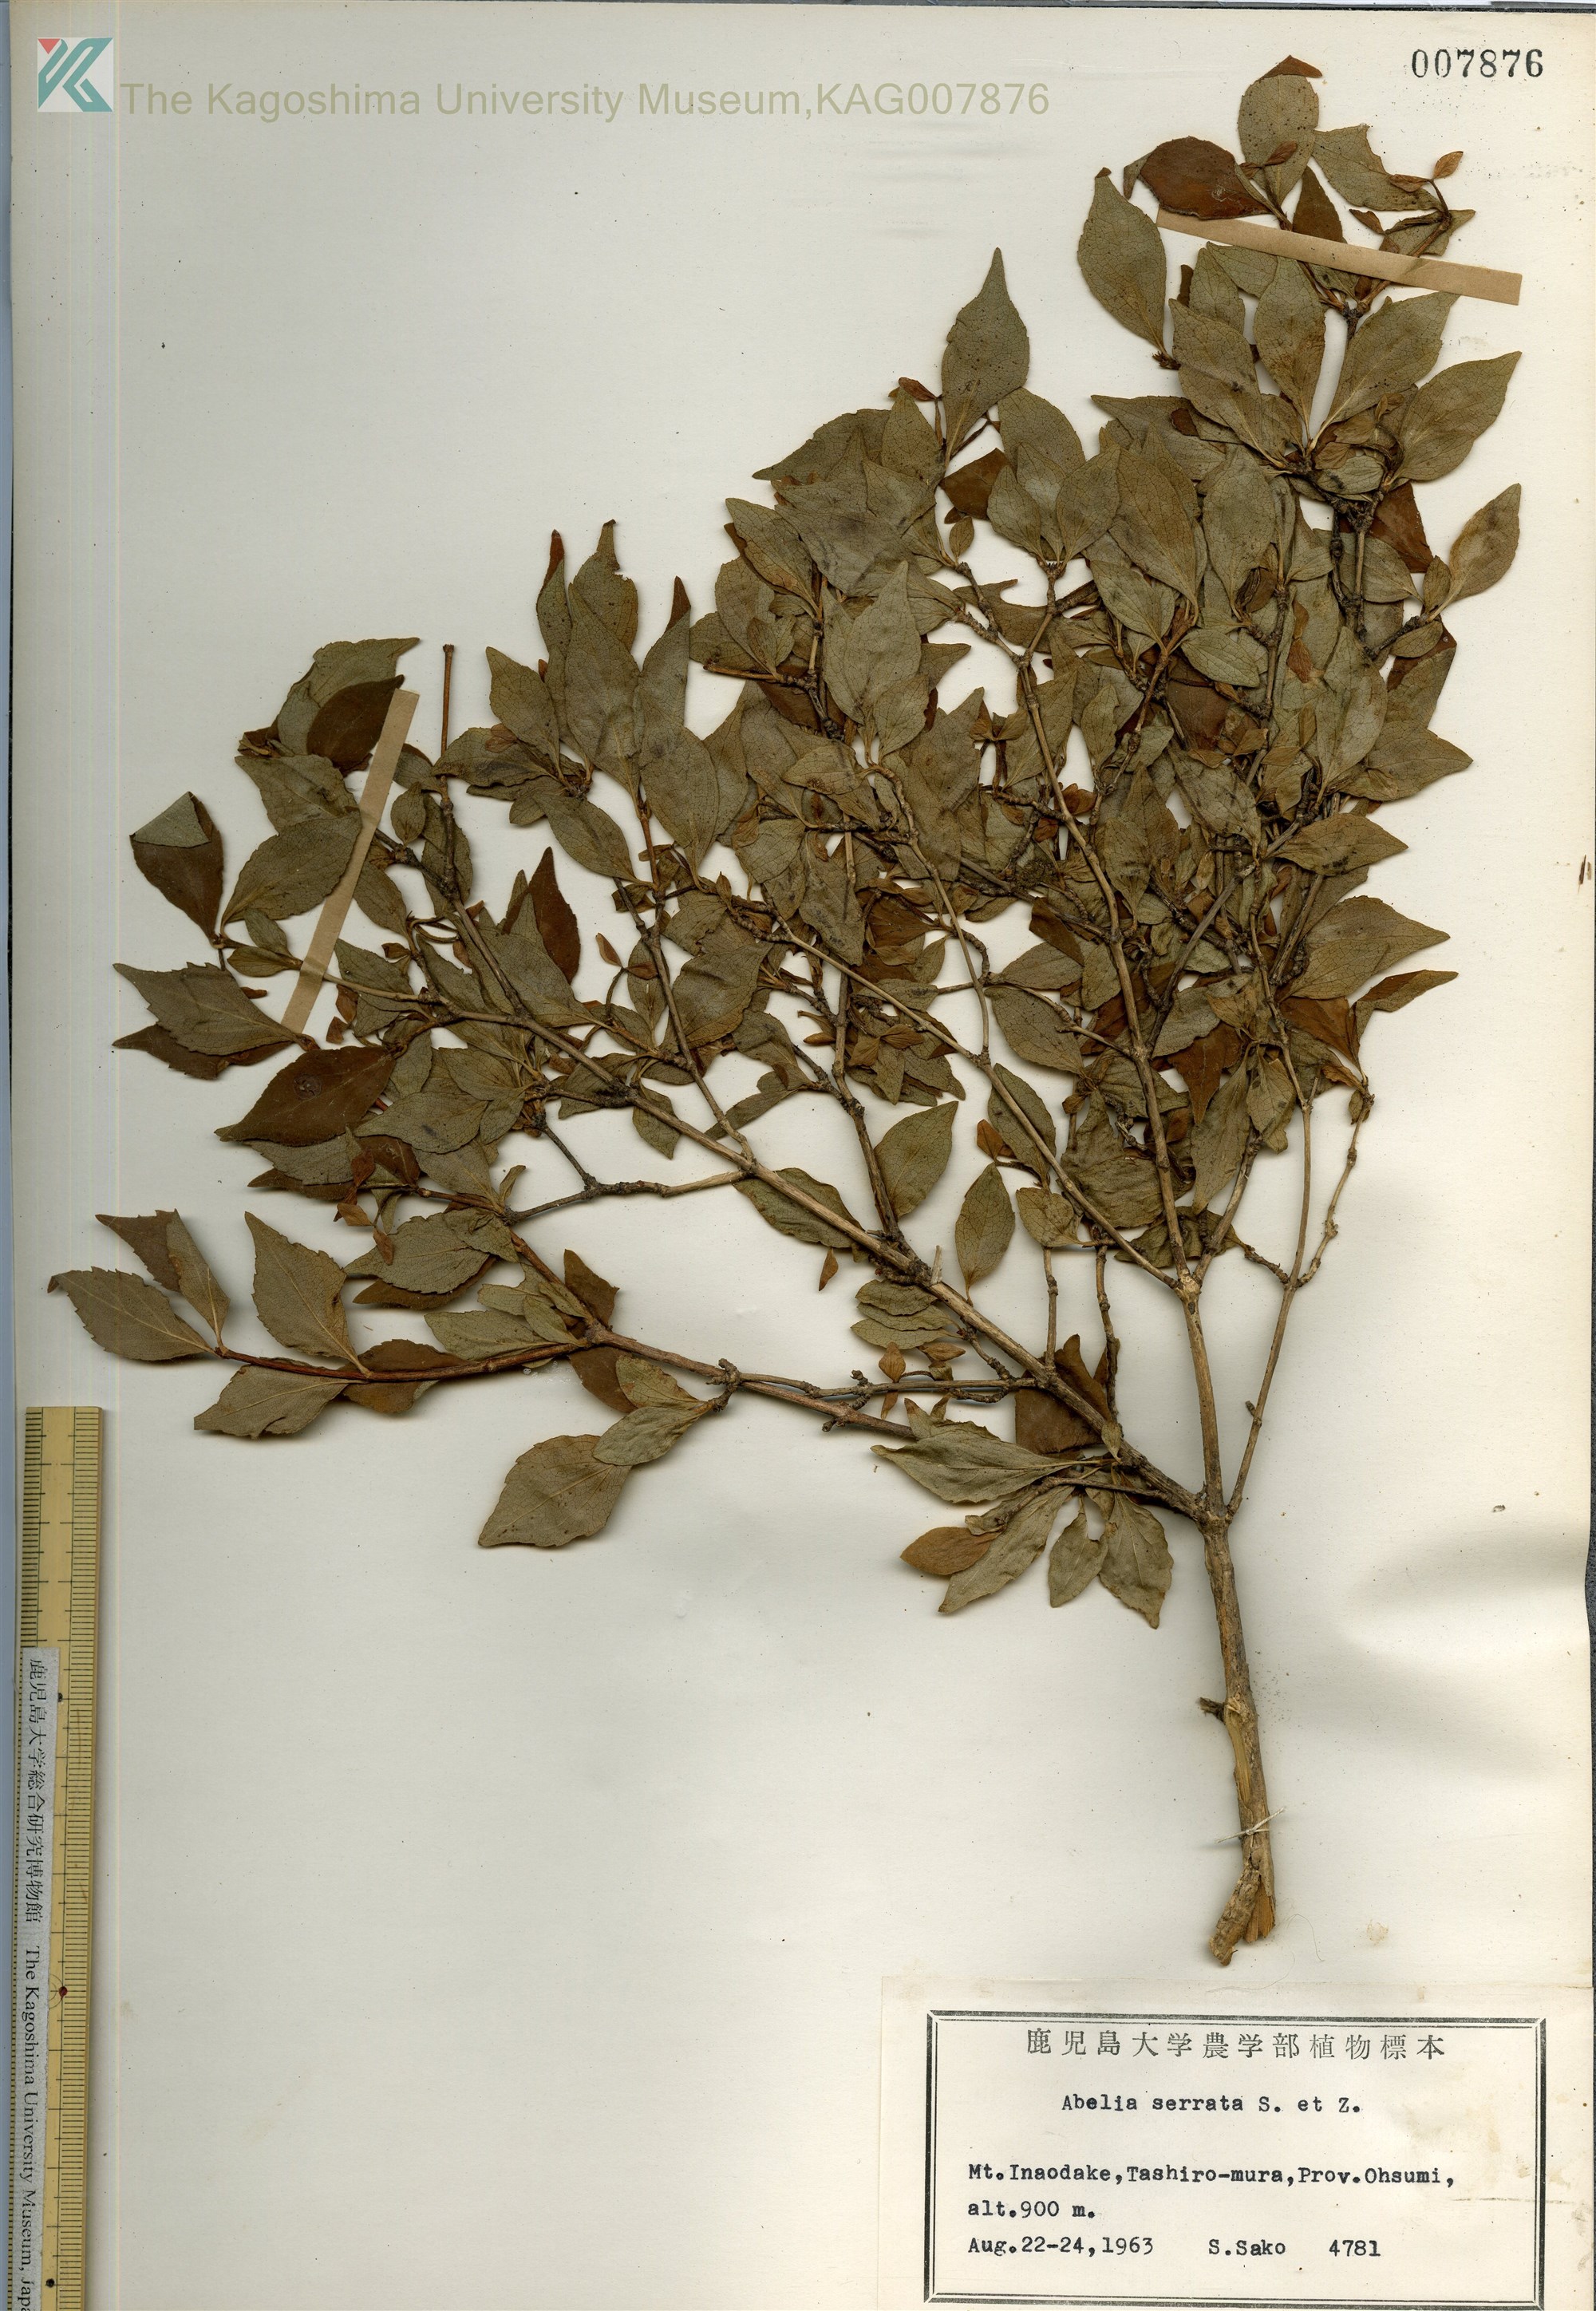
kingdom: Plantae
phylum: Tracheophyta
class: Magnoliopsida
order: Dipsacales
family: Caprifoliaceae
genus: Diabelia
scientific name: Diabelia serrata
